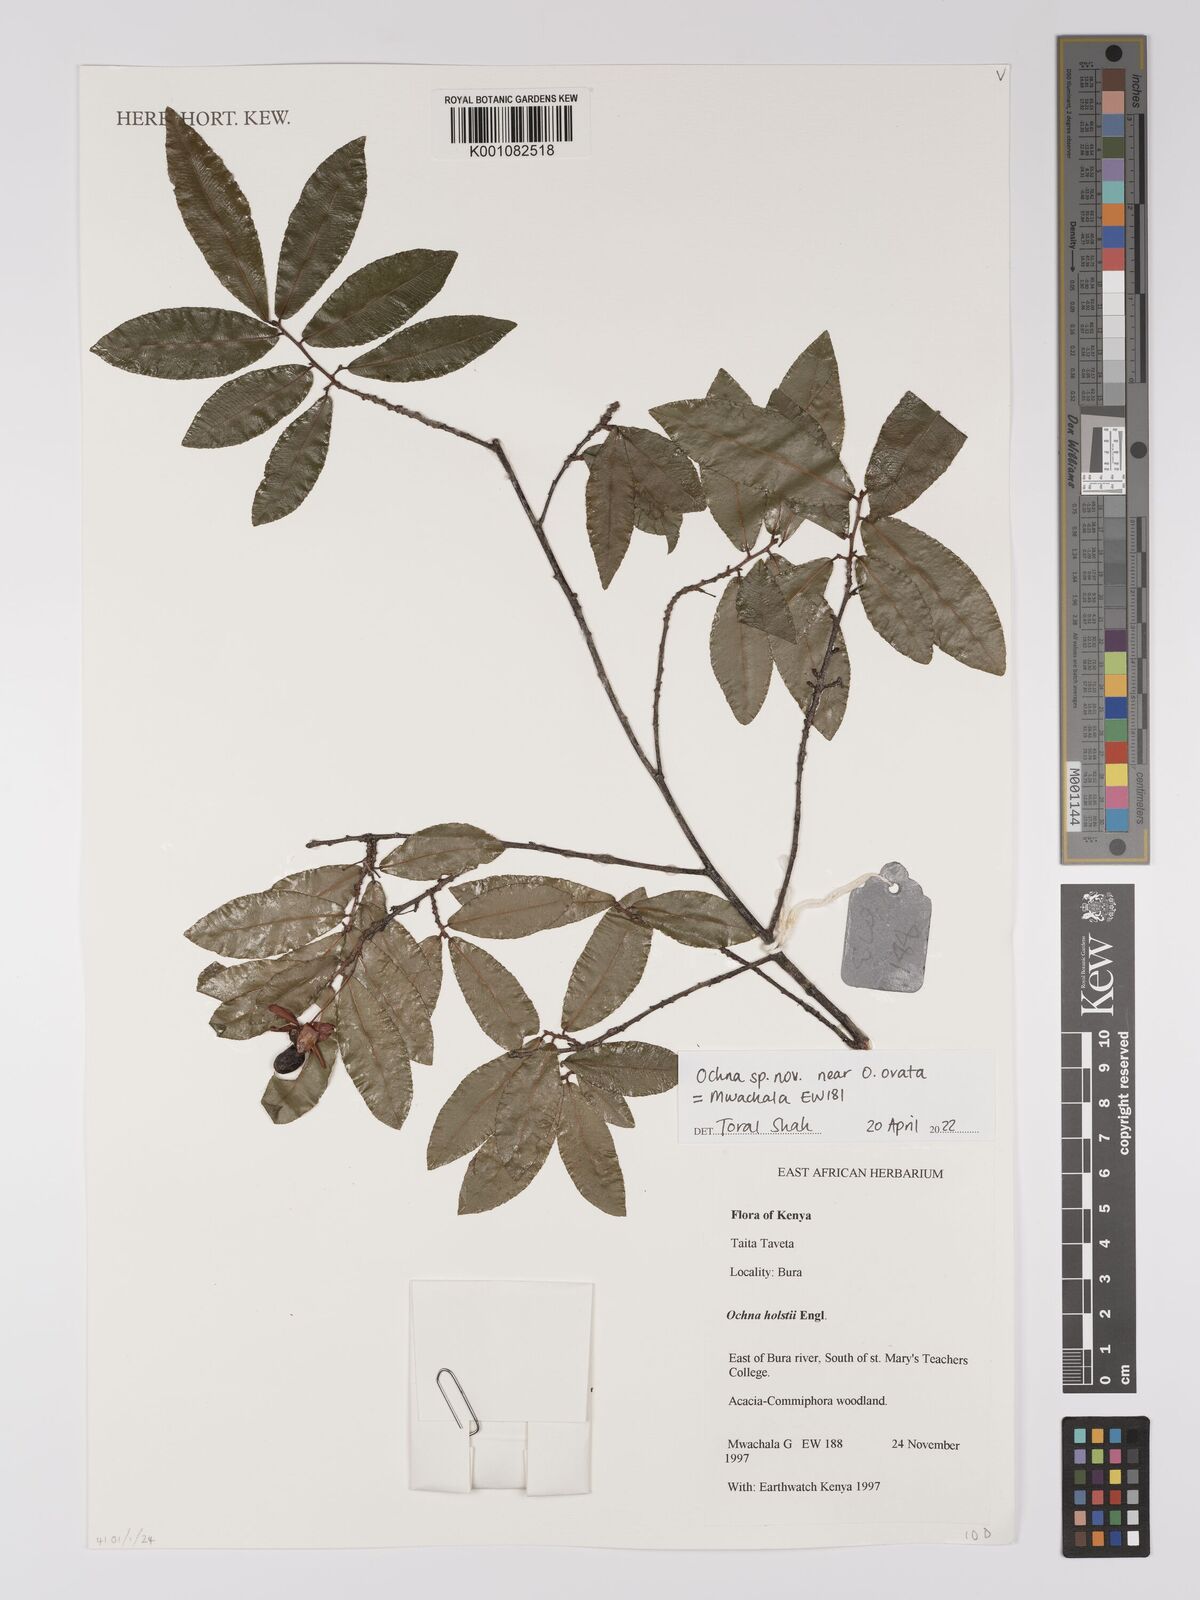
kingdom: Plantae
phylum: Tracheophyta
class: Magnoliopsida
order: Malpighiales
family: Ochnaceae
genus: Ochna
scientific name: Ochna ovata
